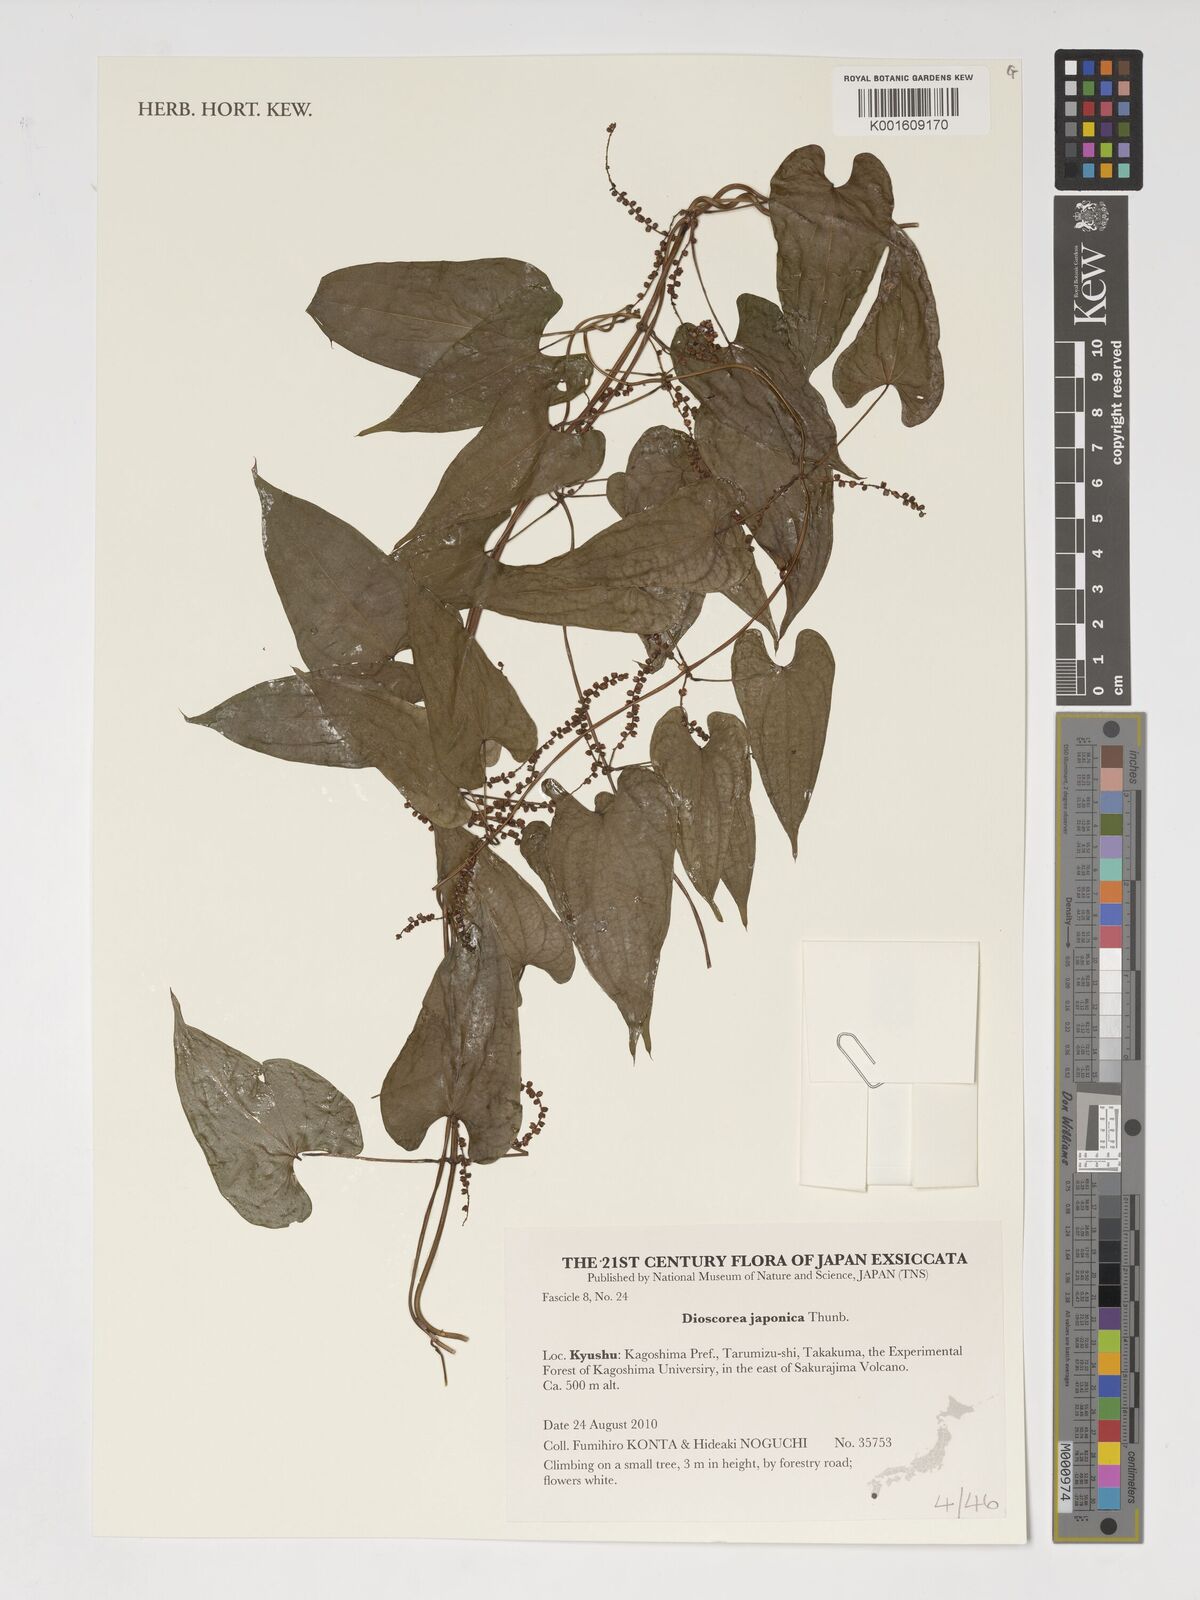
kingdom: Plantae
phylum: Tracheophyta
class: Liliopsida
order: Dioscoreales
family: Dioscoreaceae
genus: Dioscorea
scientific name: Dioscorea japonica
